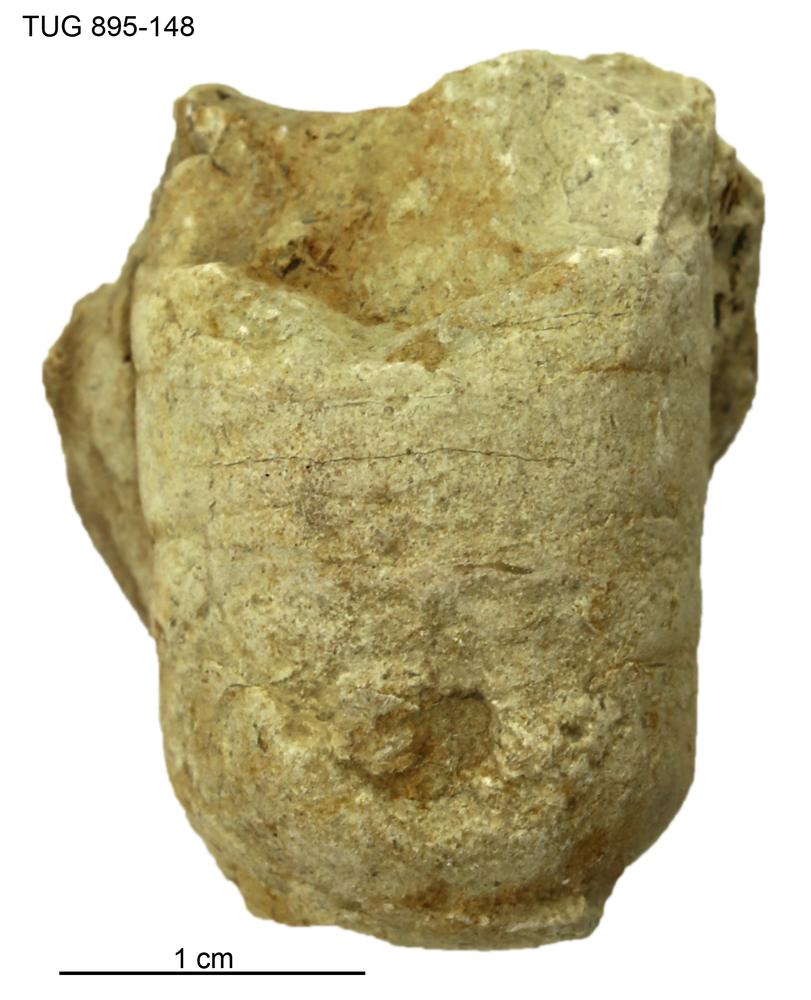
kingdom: Animalia
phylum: Mollusca
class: Cephalopoda
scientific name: Cephalopoda
